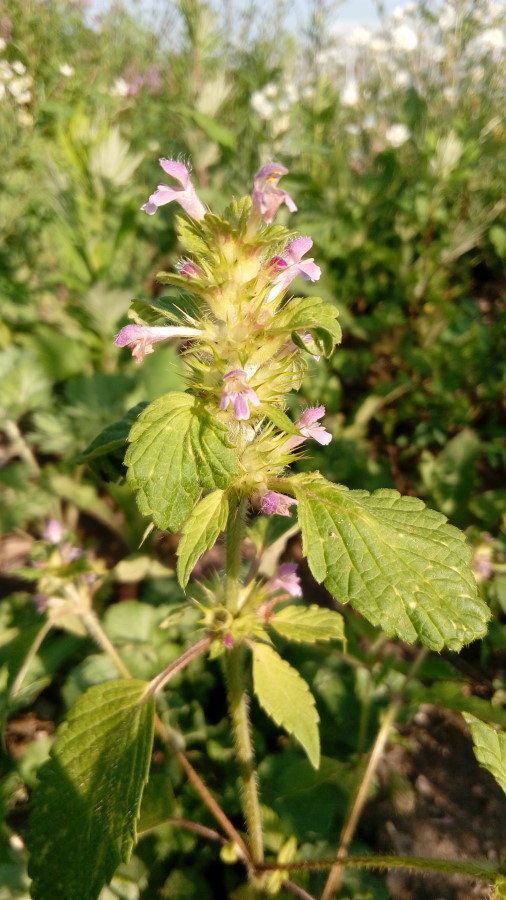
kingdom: Plantae
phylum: Tracheophyta
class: Magnoliopsida
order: Lamiales
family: Lamiaceae
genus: Galeopsis
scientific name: Galeopsis bifida
